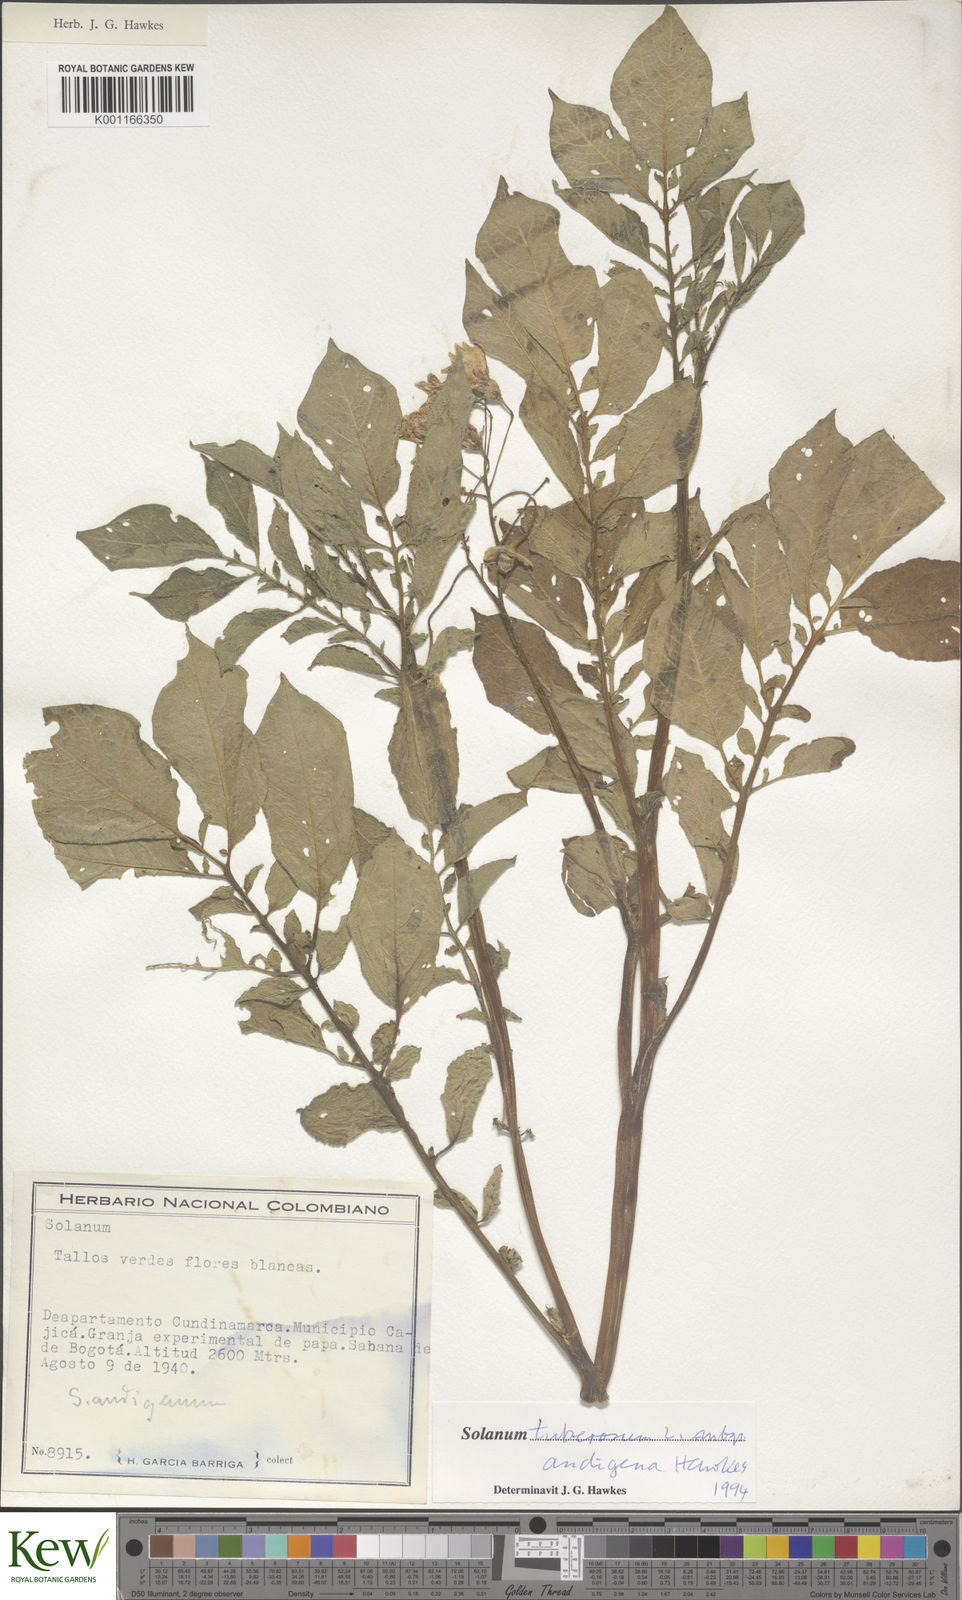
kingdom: Plantae
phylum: Tracheophyta
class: Magnoliopsida
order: Solanales
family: Solanaceae
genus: Solanum
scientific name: Solanum tuberosum
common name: Potato
